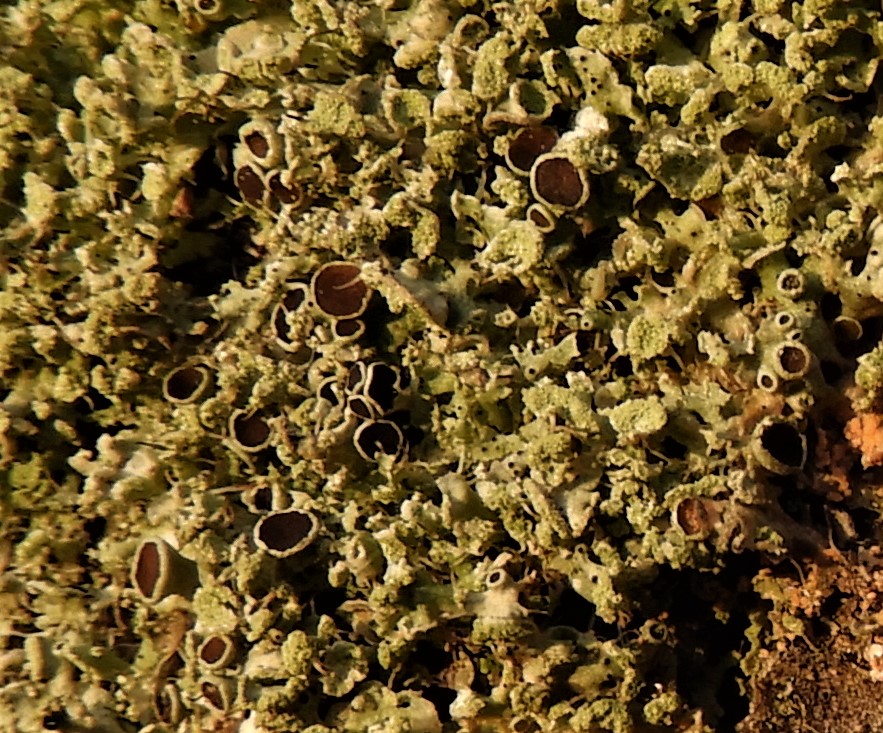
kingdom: Fungi
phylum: Ascomycota
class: Lecanoromycetes
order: Caliciales
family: Physciaceae
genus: Physcia
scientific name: Physcia tenella
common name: spæd rosetlav
